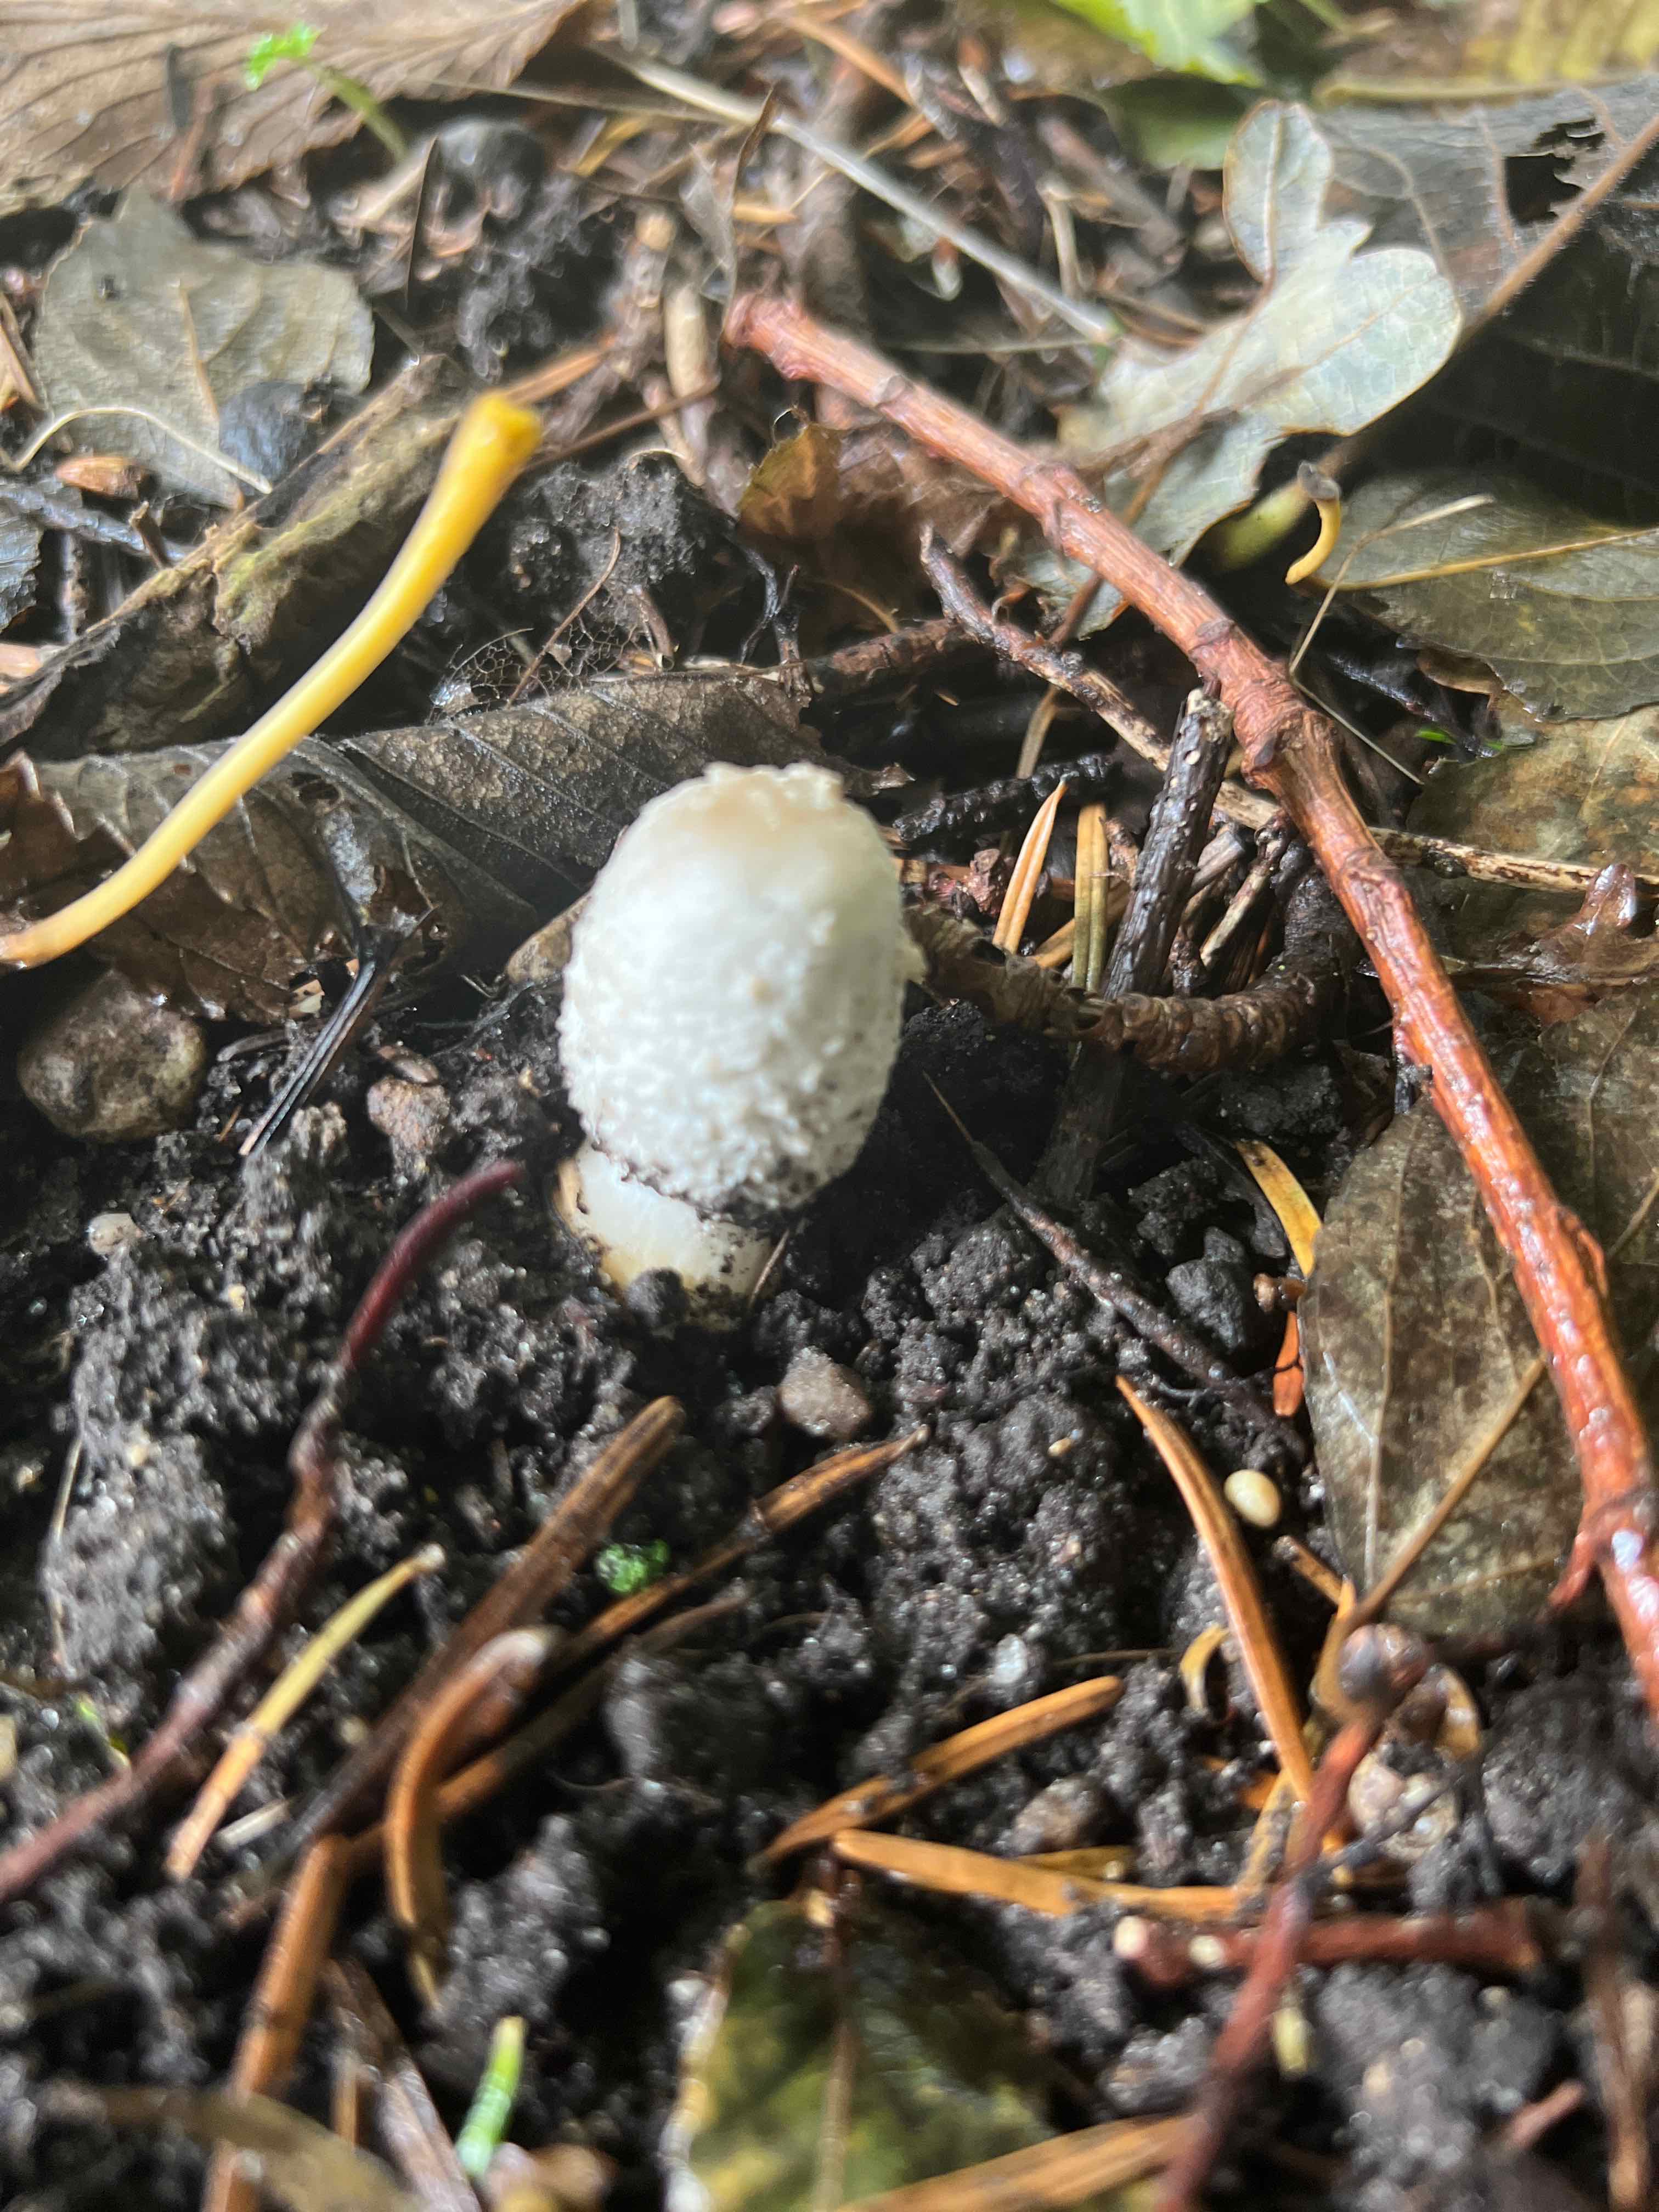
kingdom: Fungi
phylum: Basidiomycota
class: Agaricomycetes
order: Agaricales
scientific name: Agaricales
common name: champignonordenen
